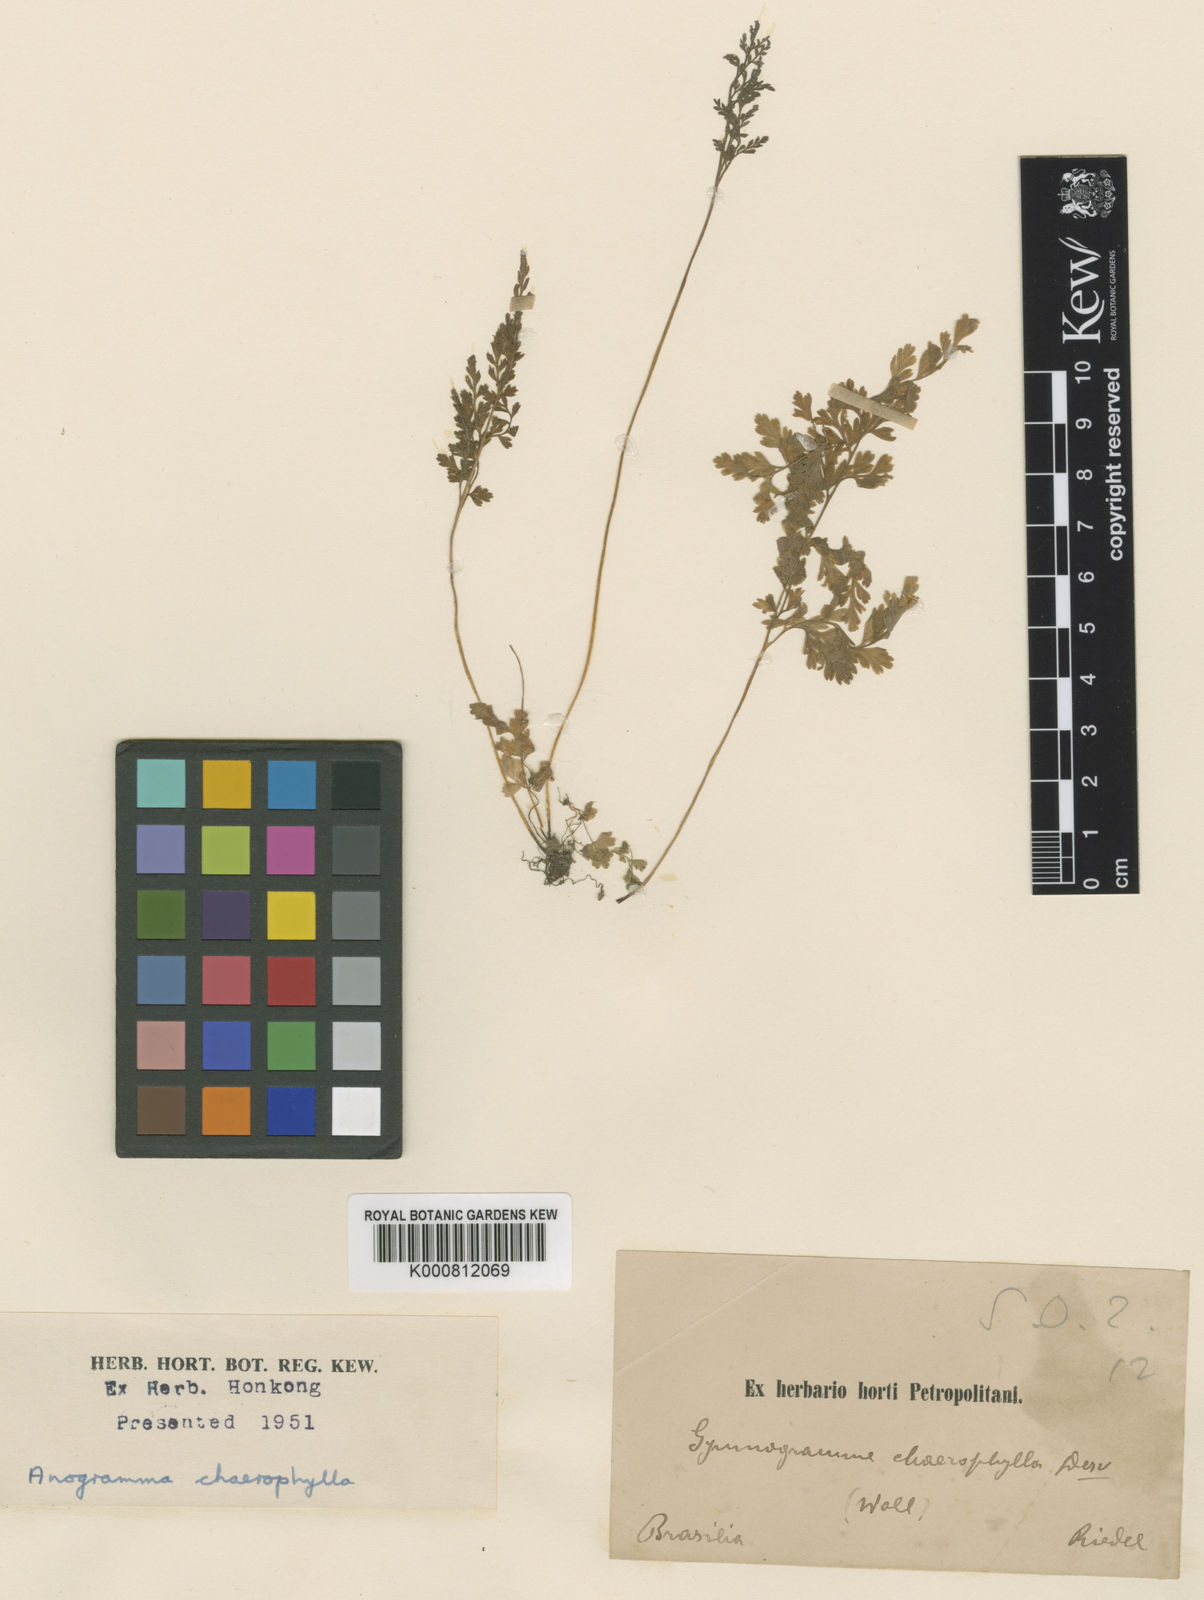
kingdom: Plantae
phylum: Tracheophyta
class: Polypodiopsida
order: Polypodiales
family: Pteridaceae
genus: Gastoniella
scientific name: Gastoniella chaerophylla
